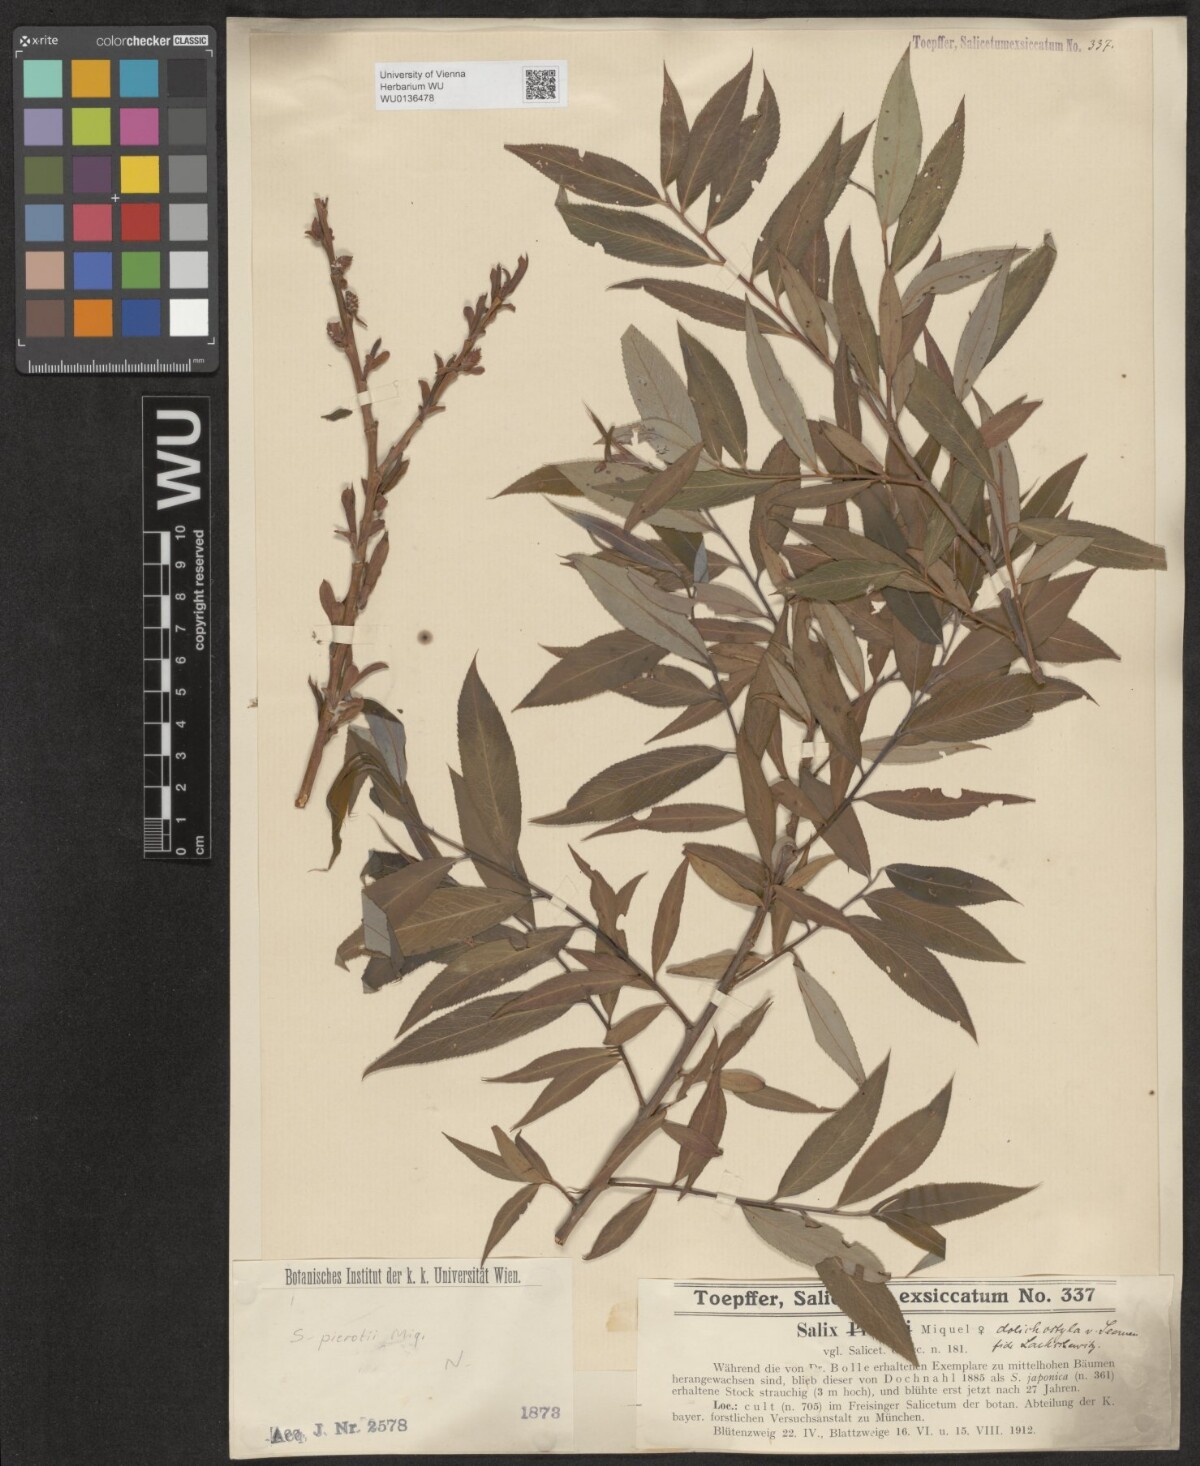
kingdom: Plantae
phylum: Tracheophyta
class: Magnoliopsida
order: Malpighiales
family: Salicaceae
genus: Salix
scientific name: Salix pierotii
